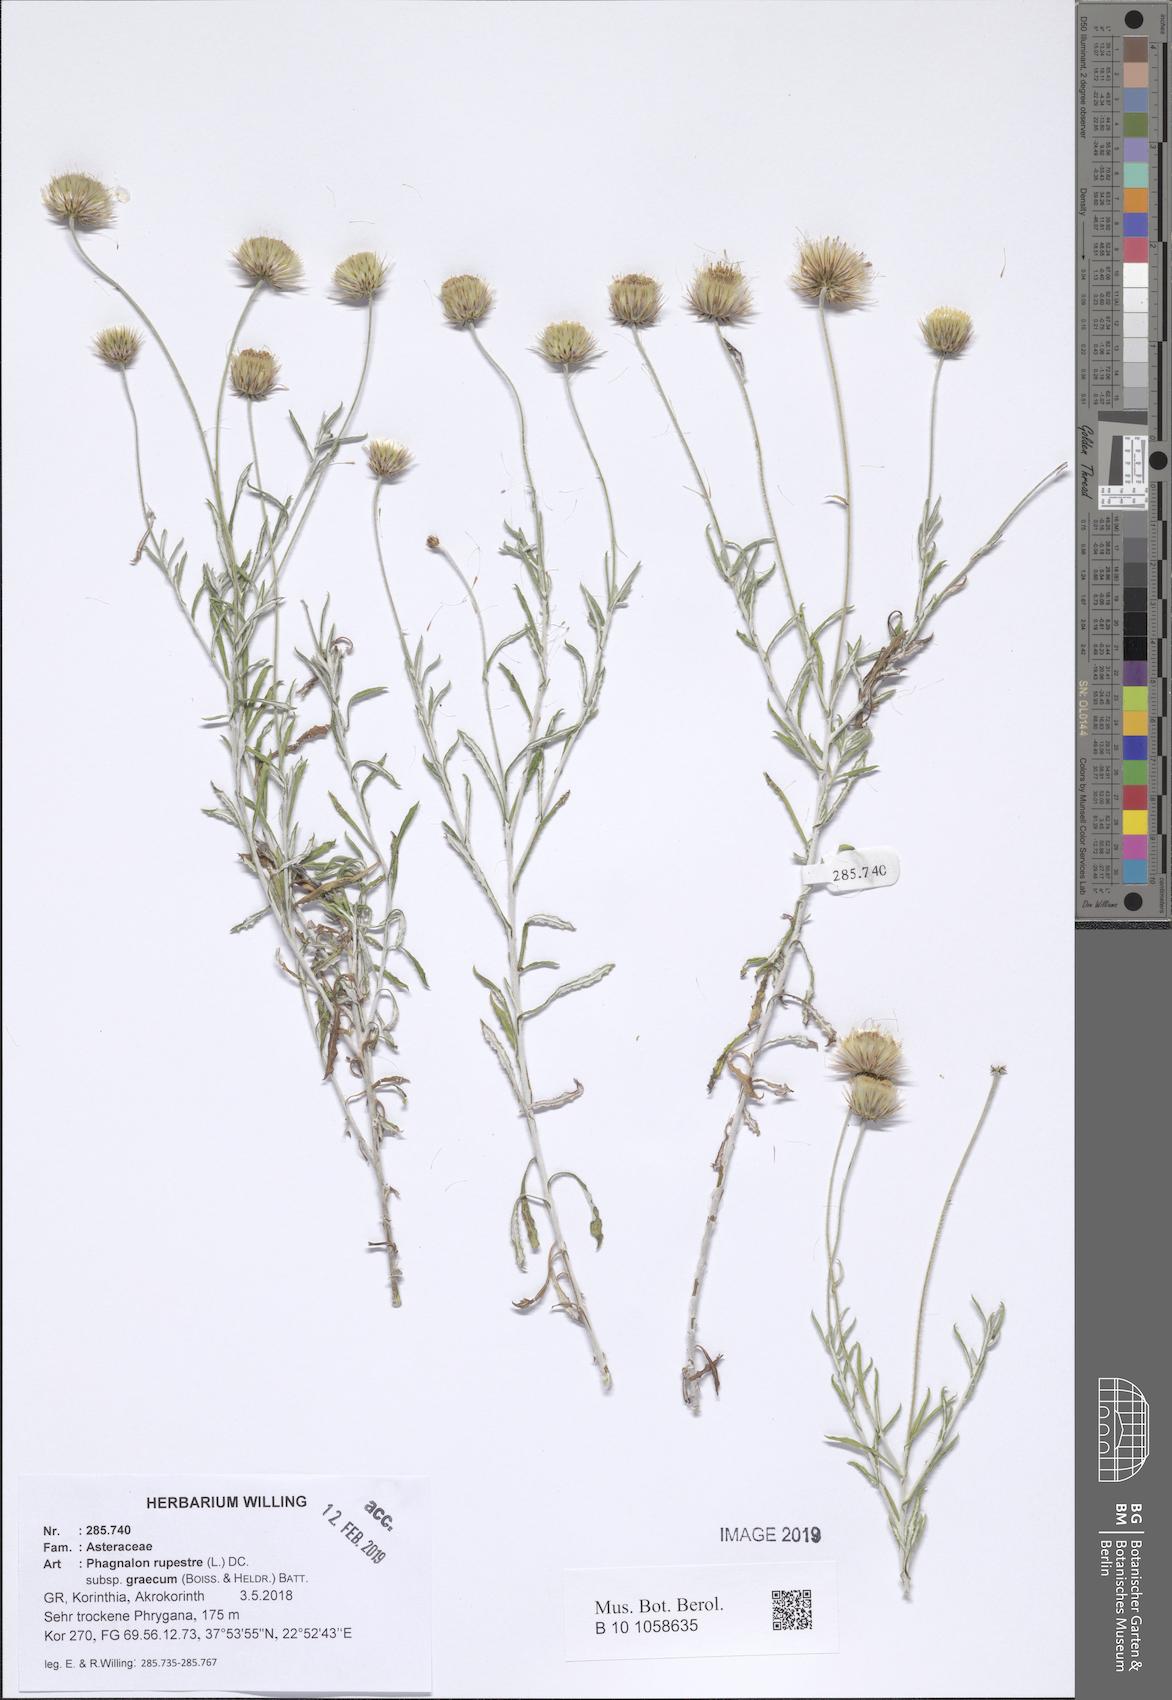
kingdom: Plantae
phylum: Tracheophyta
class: Magnoliopsida
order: Asterales
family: Asteraceae
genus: Phagnalon
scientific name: Phagnalon graecum
